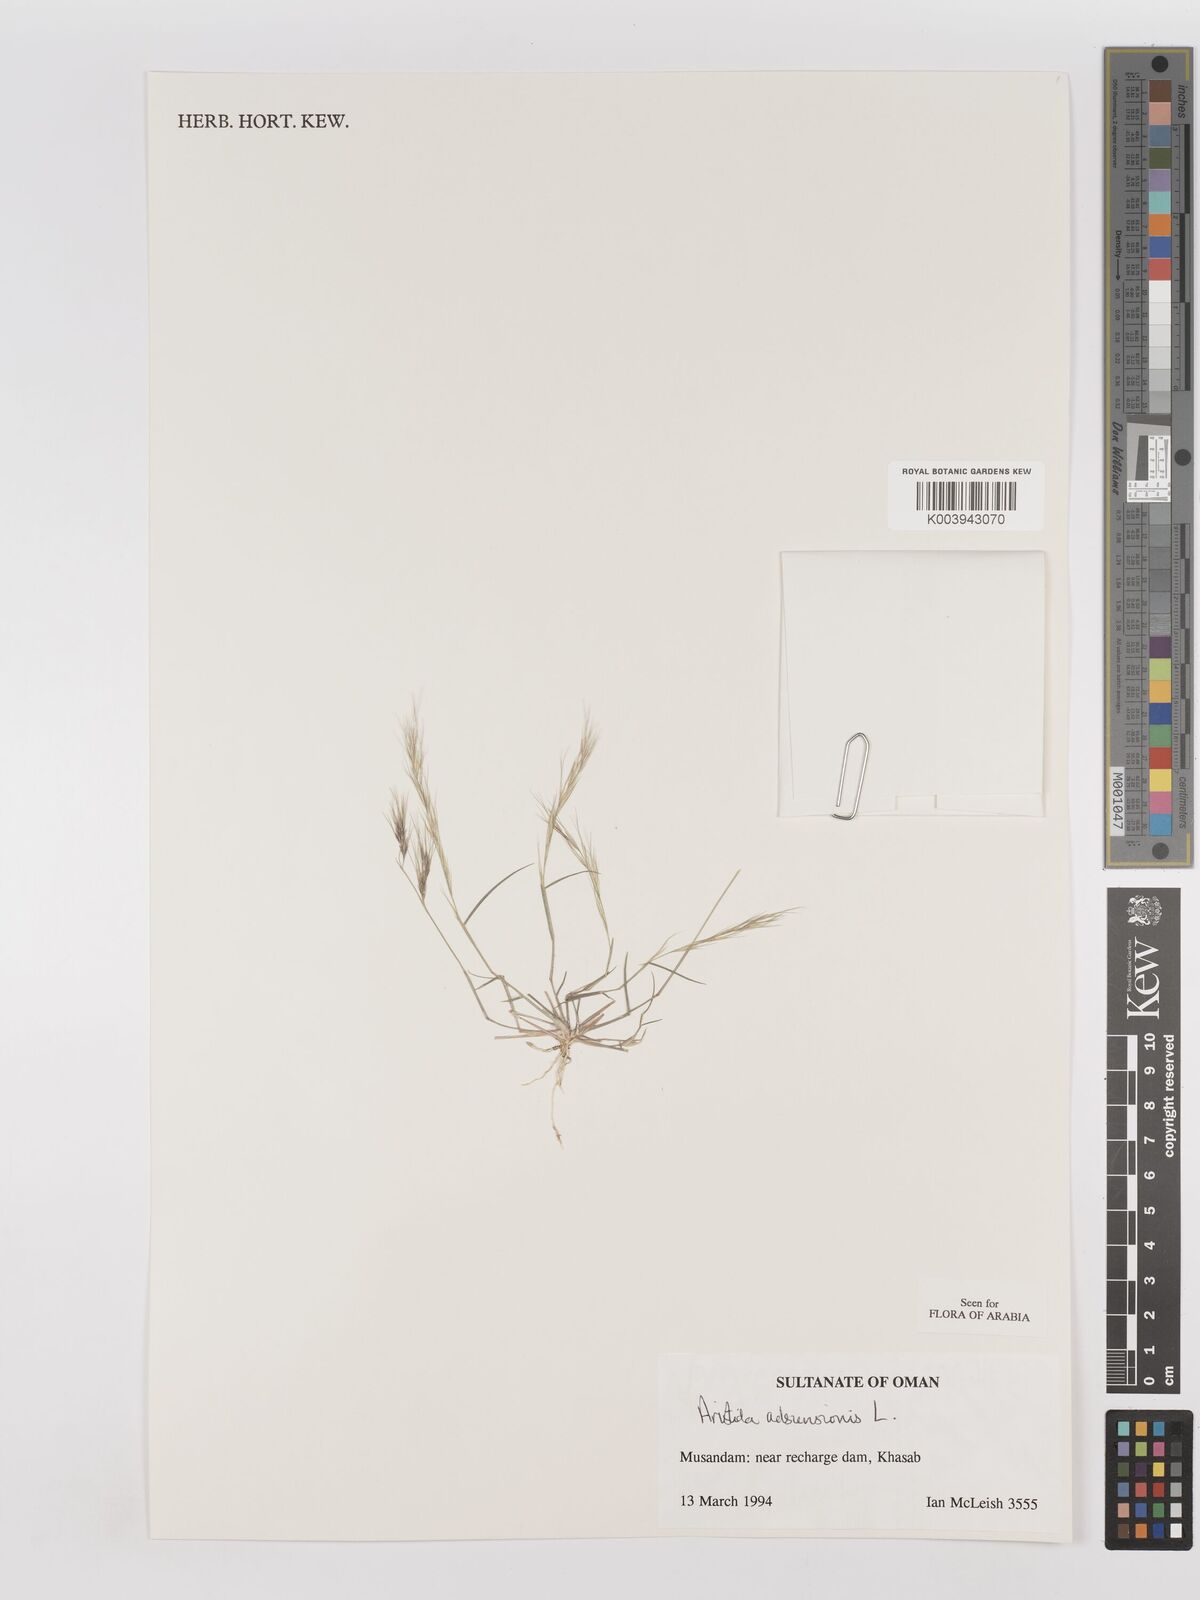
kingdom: Plantae
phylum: Tracheophyta
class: Liliopsida
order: Poales
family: Poaceae
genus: Aristida
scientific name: Aristida adscensionis
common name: Sixweeks threeawn
